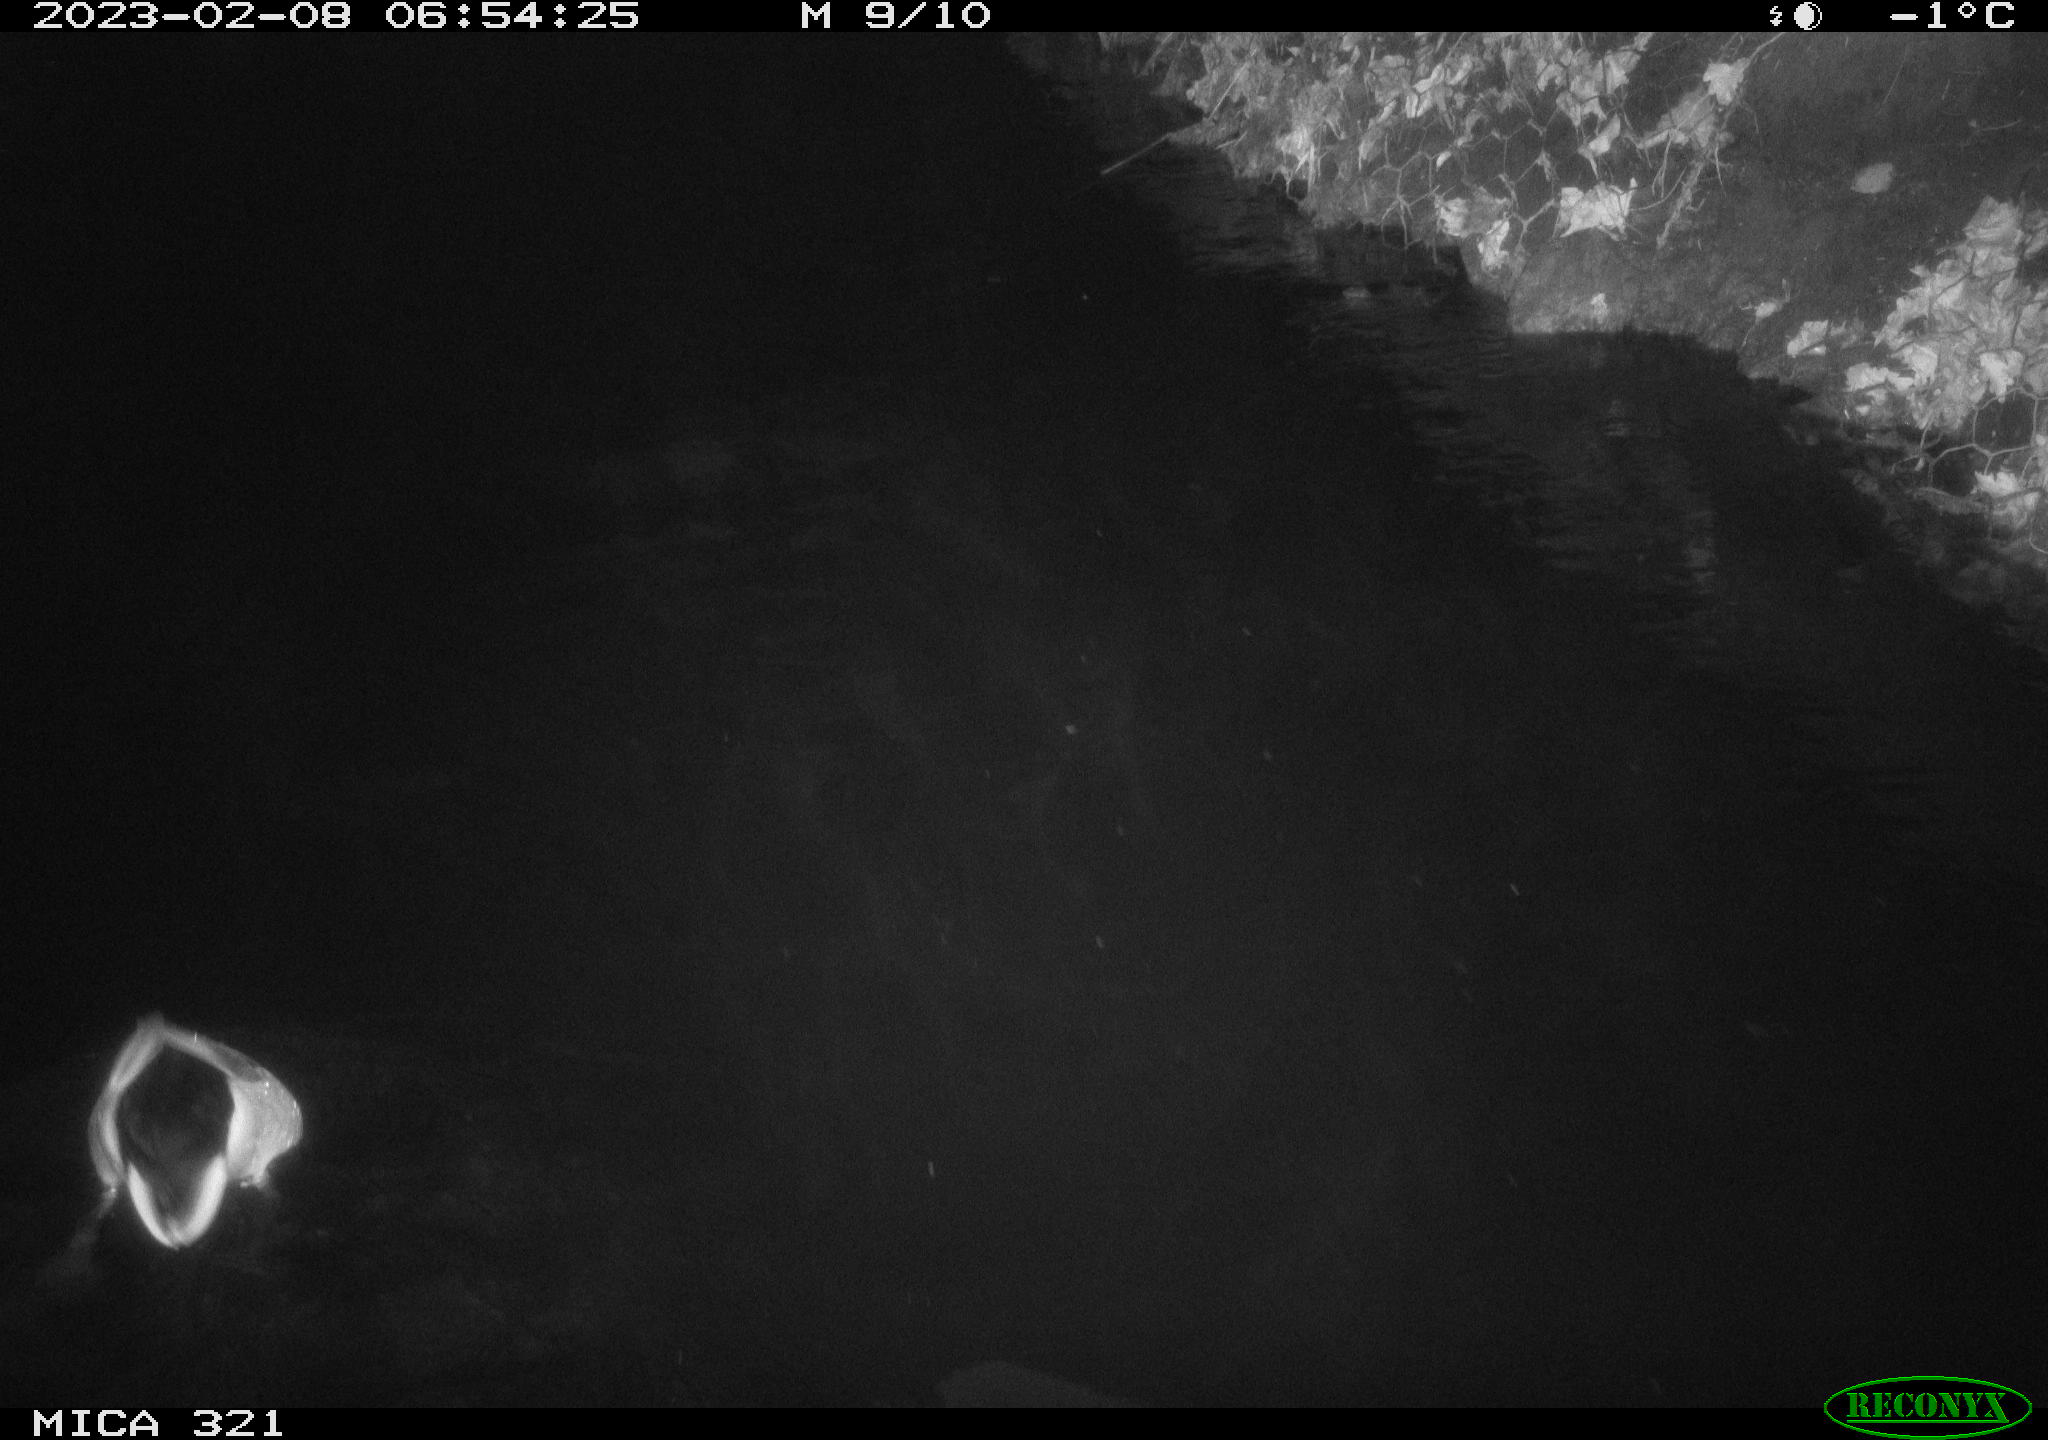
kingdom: Animalia
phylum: Chordata
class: Aves
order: Anseriformes
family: Anatidae
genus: Anas
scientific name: Anas
